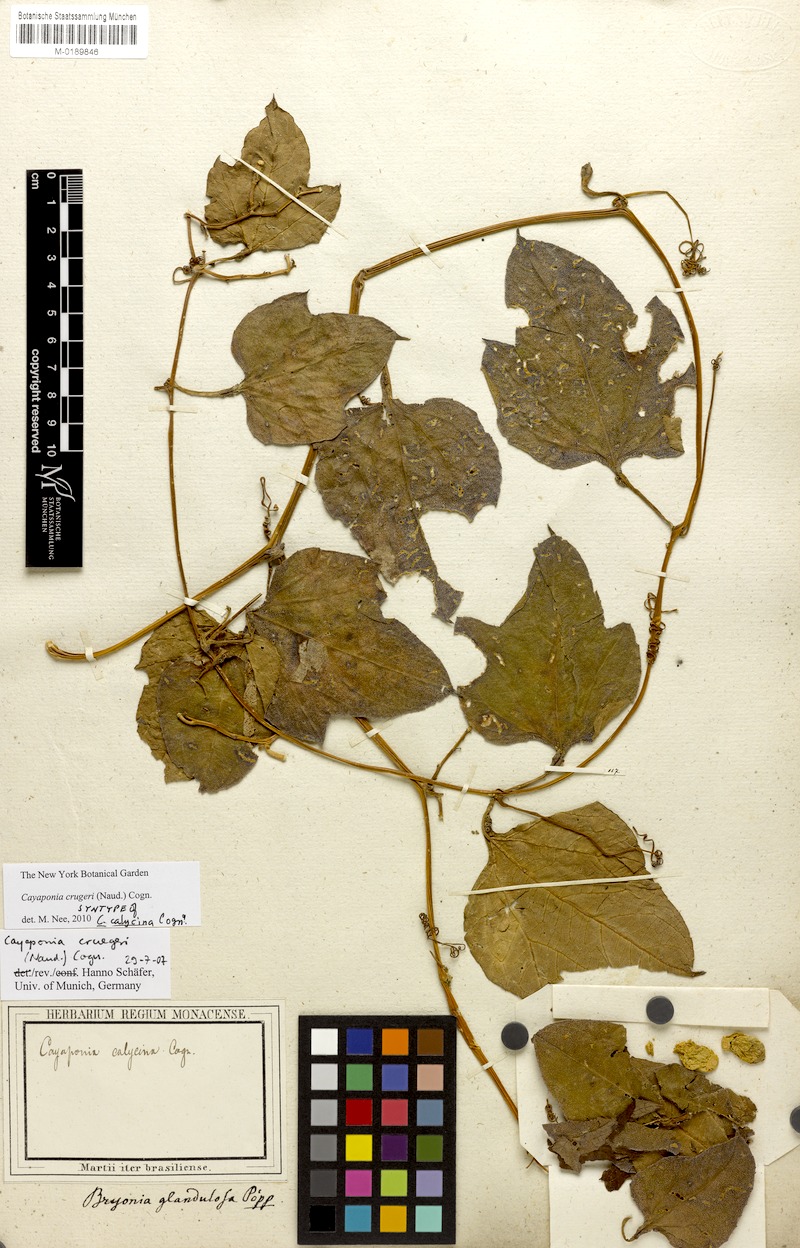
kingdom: Plantae
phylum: Tracheophyta
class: Magnoliopsida
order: Cucurbitales
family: Cucurbitaceae
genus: Cayaponia
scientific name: Cayaponia crugeri
